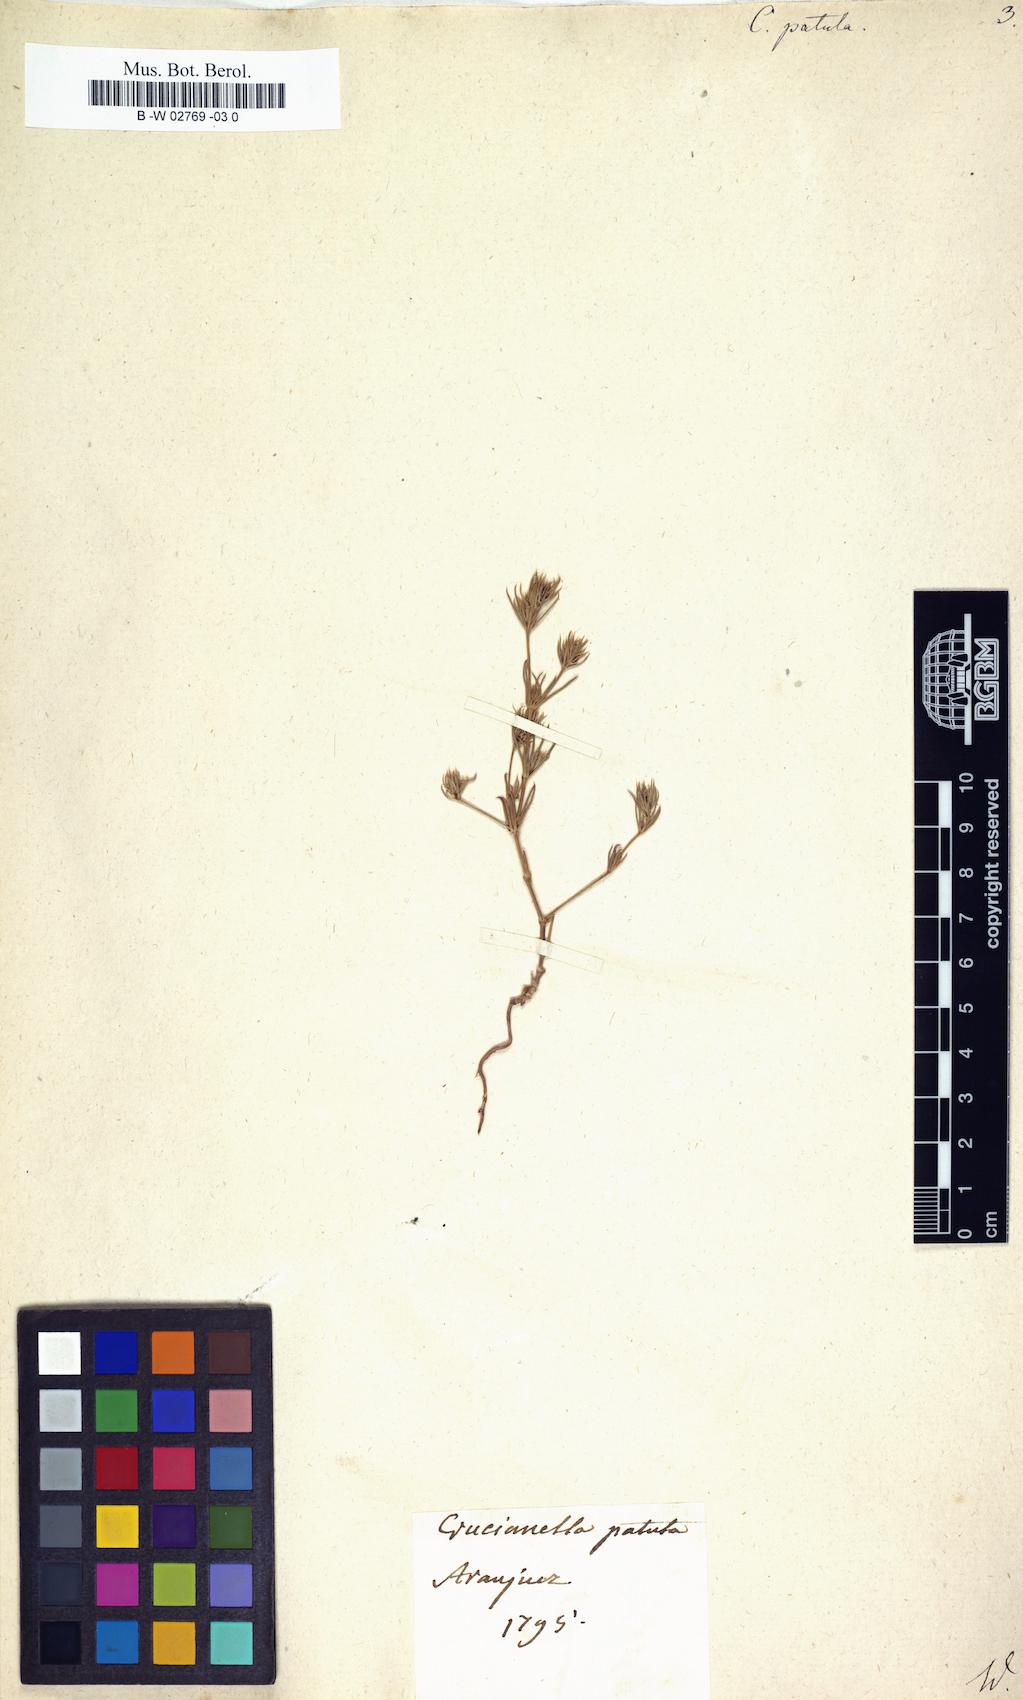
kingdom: Plantae
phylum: Tracheophyta
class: Magnoliopsida
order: Gentianales
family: Rubiaceae
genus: Crucianella
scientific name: Crucianella patula
